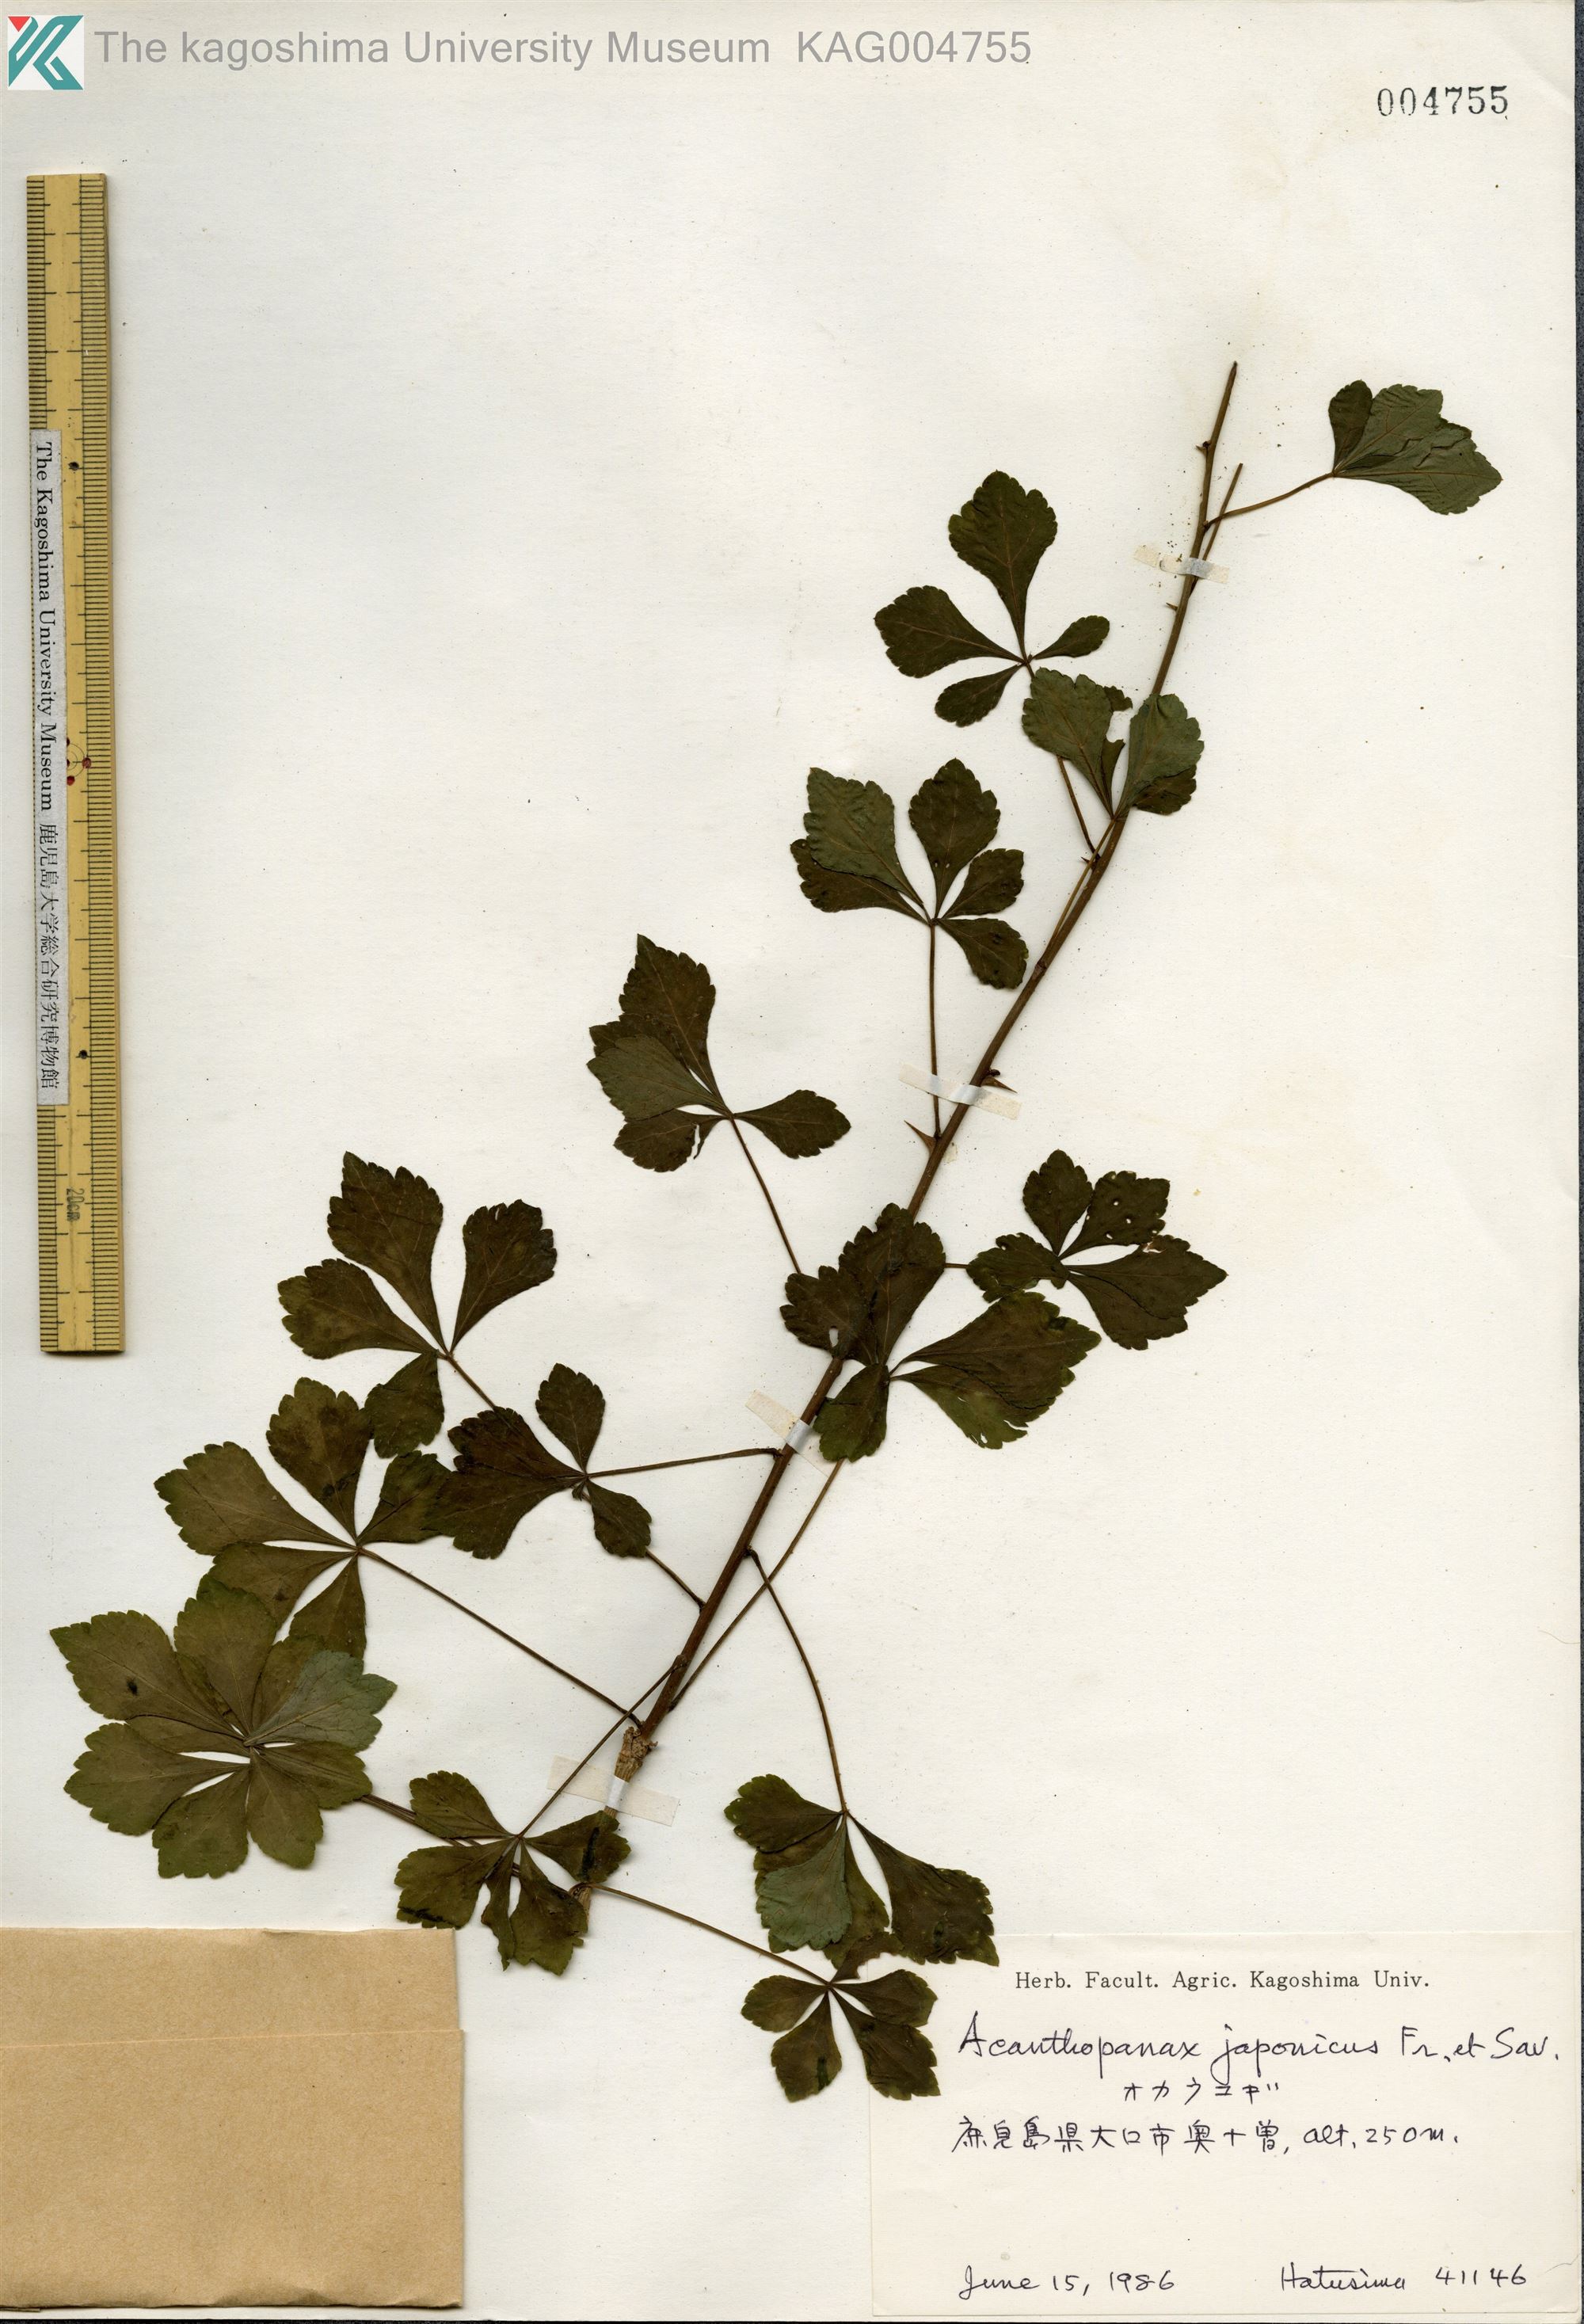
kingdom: Plantae
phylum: Tracheophyta
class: Magnoliopsida
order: Apiales
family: Araliaceae
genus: Eleutherococcus
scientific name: Eleutherococcus japonicus
